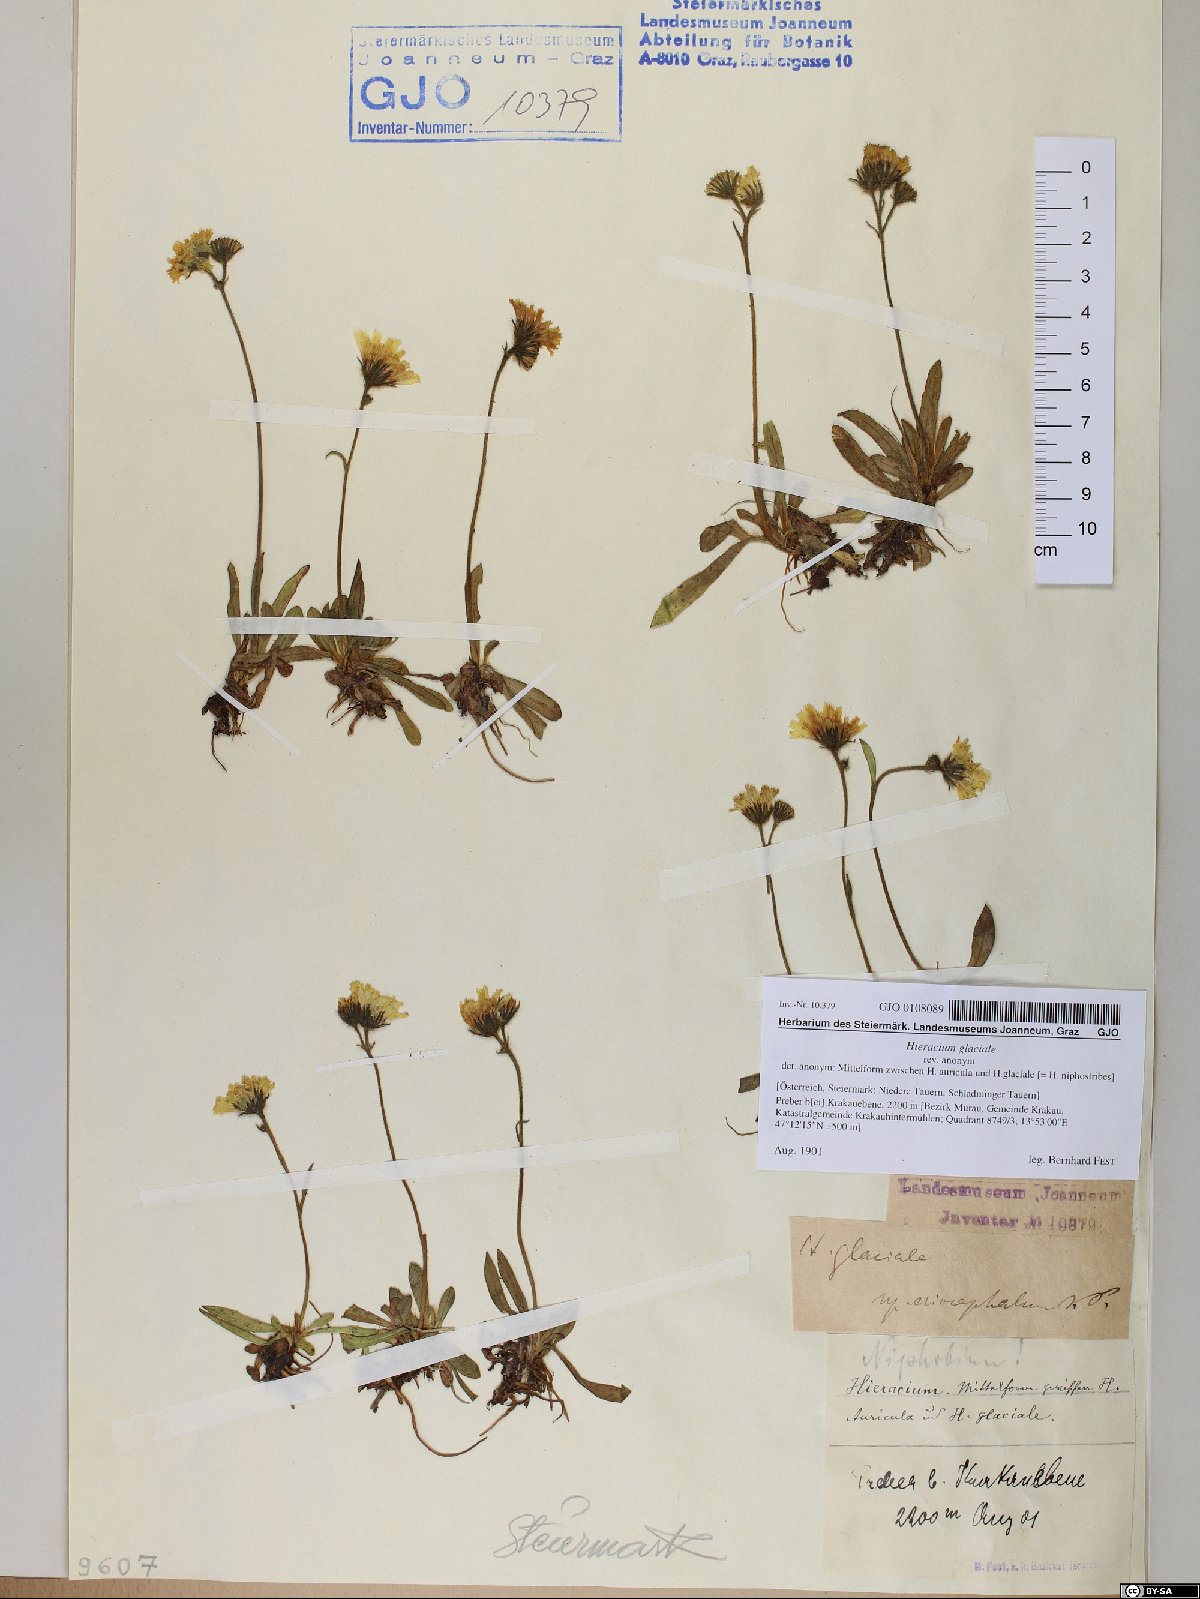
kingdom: Plantae
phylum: Tracheophyta
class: Magnoliopsida
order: Asterales
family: Asteraceae
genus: Pilosella
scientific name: Pilosella glacialis
